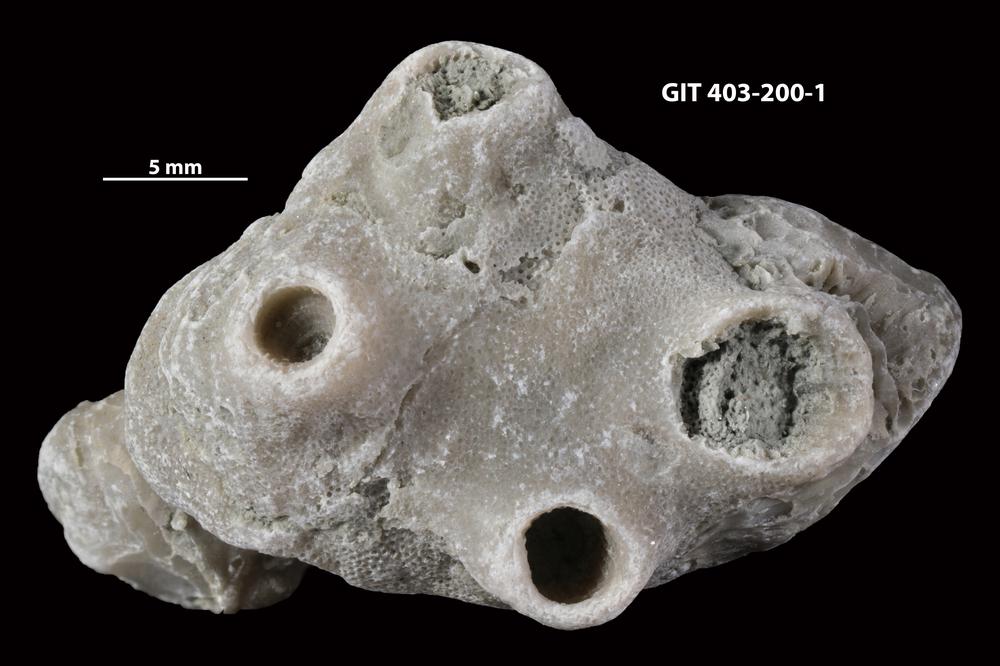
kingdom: Animalia
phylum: Cnidaria
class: Anthozoa
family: Tryplasmatidae
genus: Tryplasma
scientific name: Tryplasma
